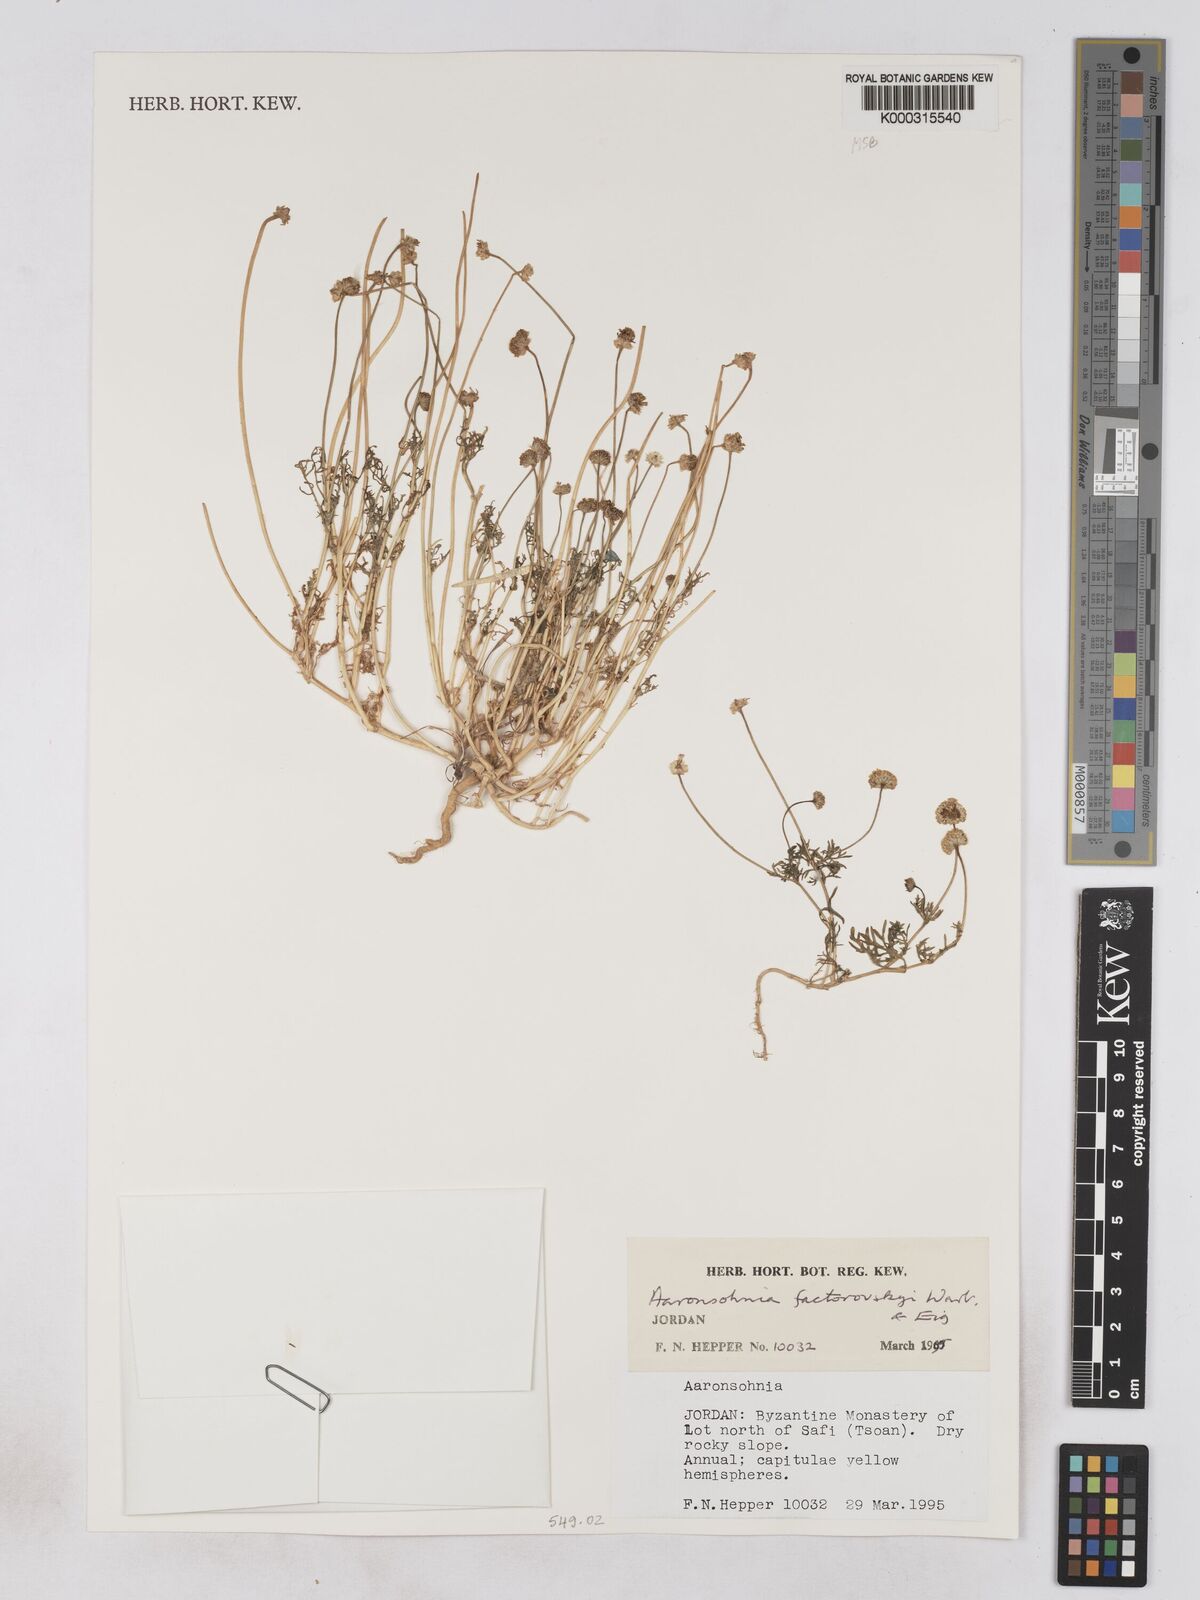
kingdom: Plantae
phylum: Tracheophyta
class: Magnoliopsida
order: Asterales
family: Asteraceae
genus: Otoglyphis
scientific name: Otoglyphis factorovskyi
